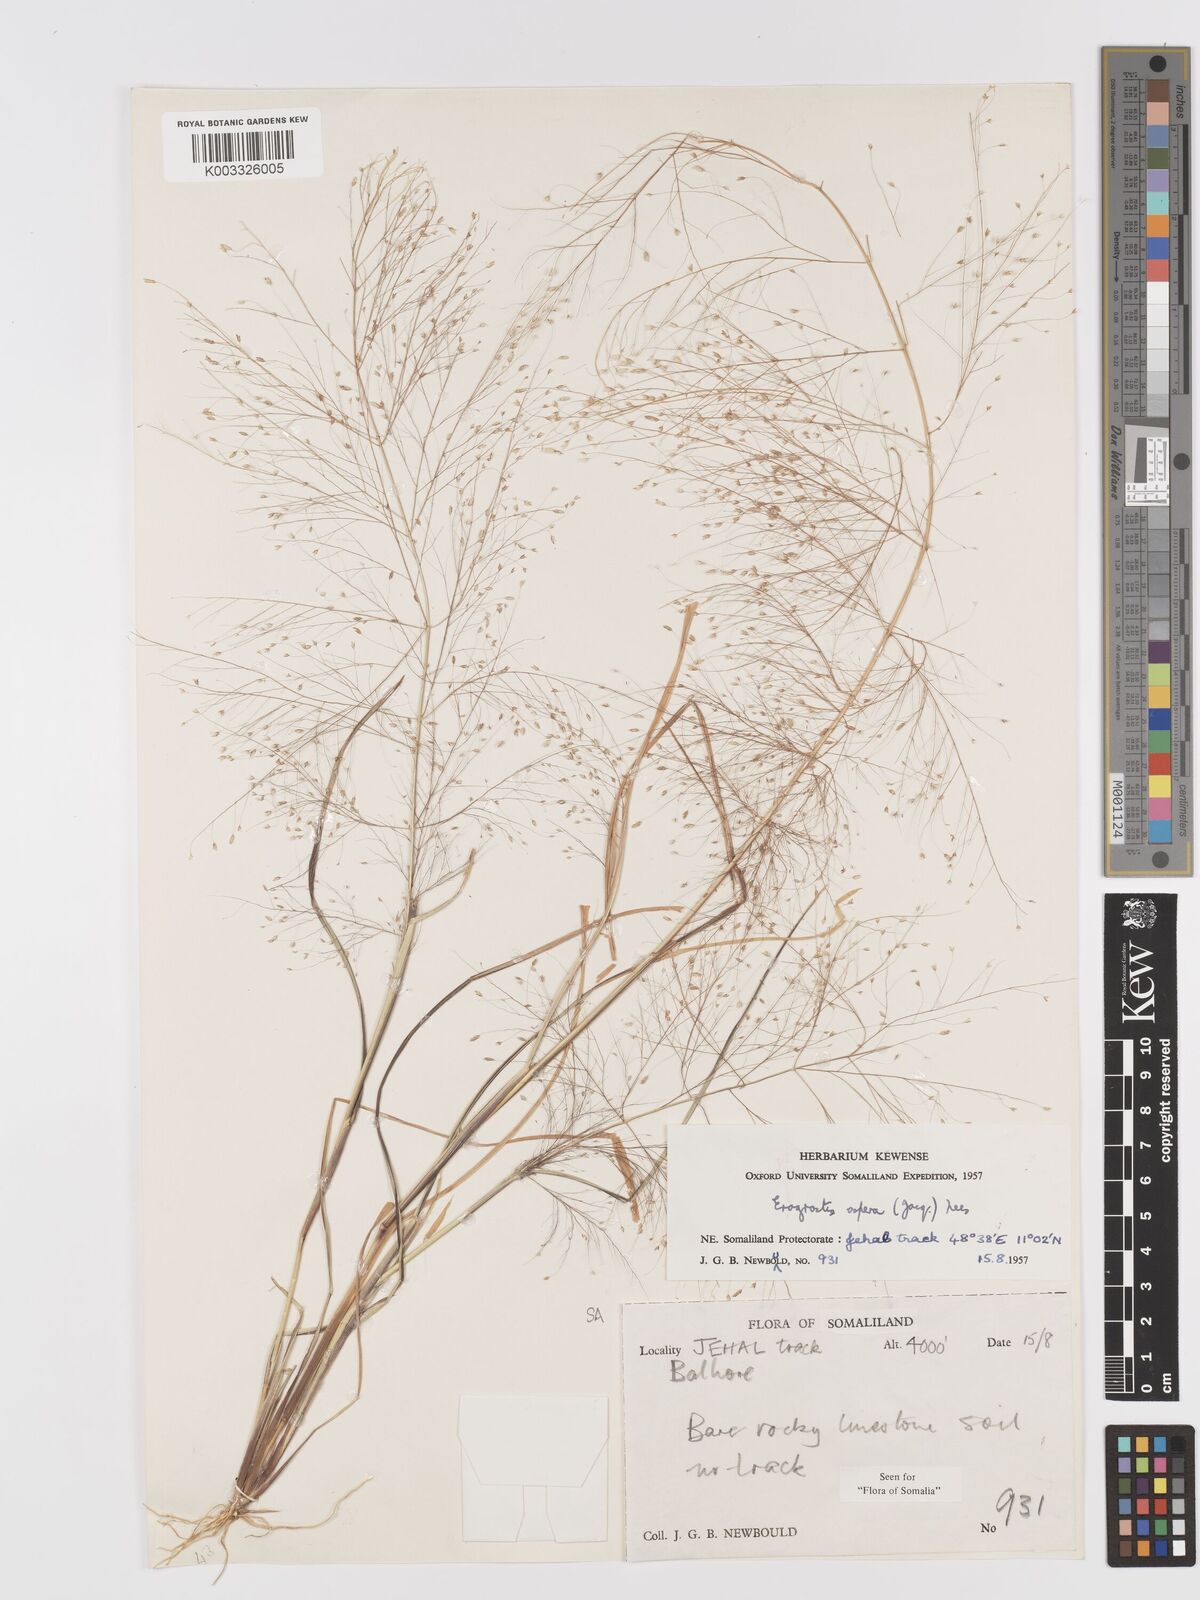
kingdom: Plantae
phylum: Tracheophyta
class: Liliopsida
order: Poales
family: Poaceae
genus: Eragrostis
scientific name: Eragrostis aspera
